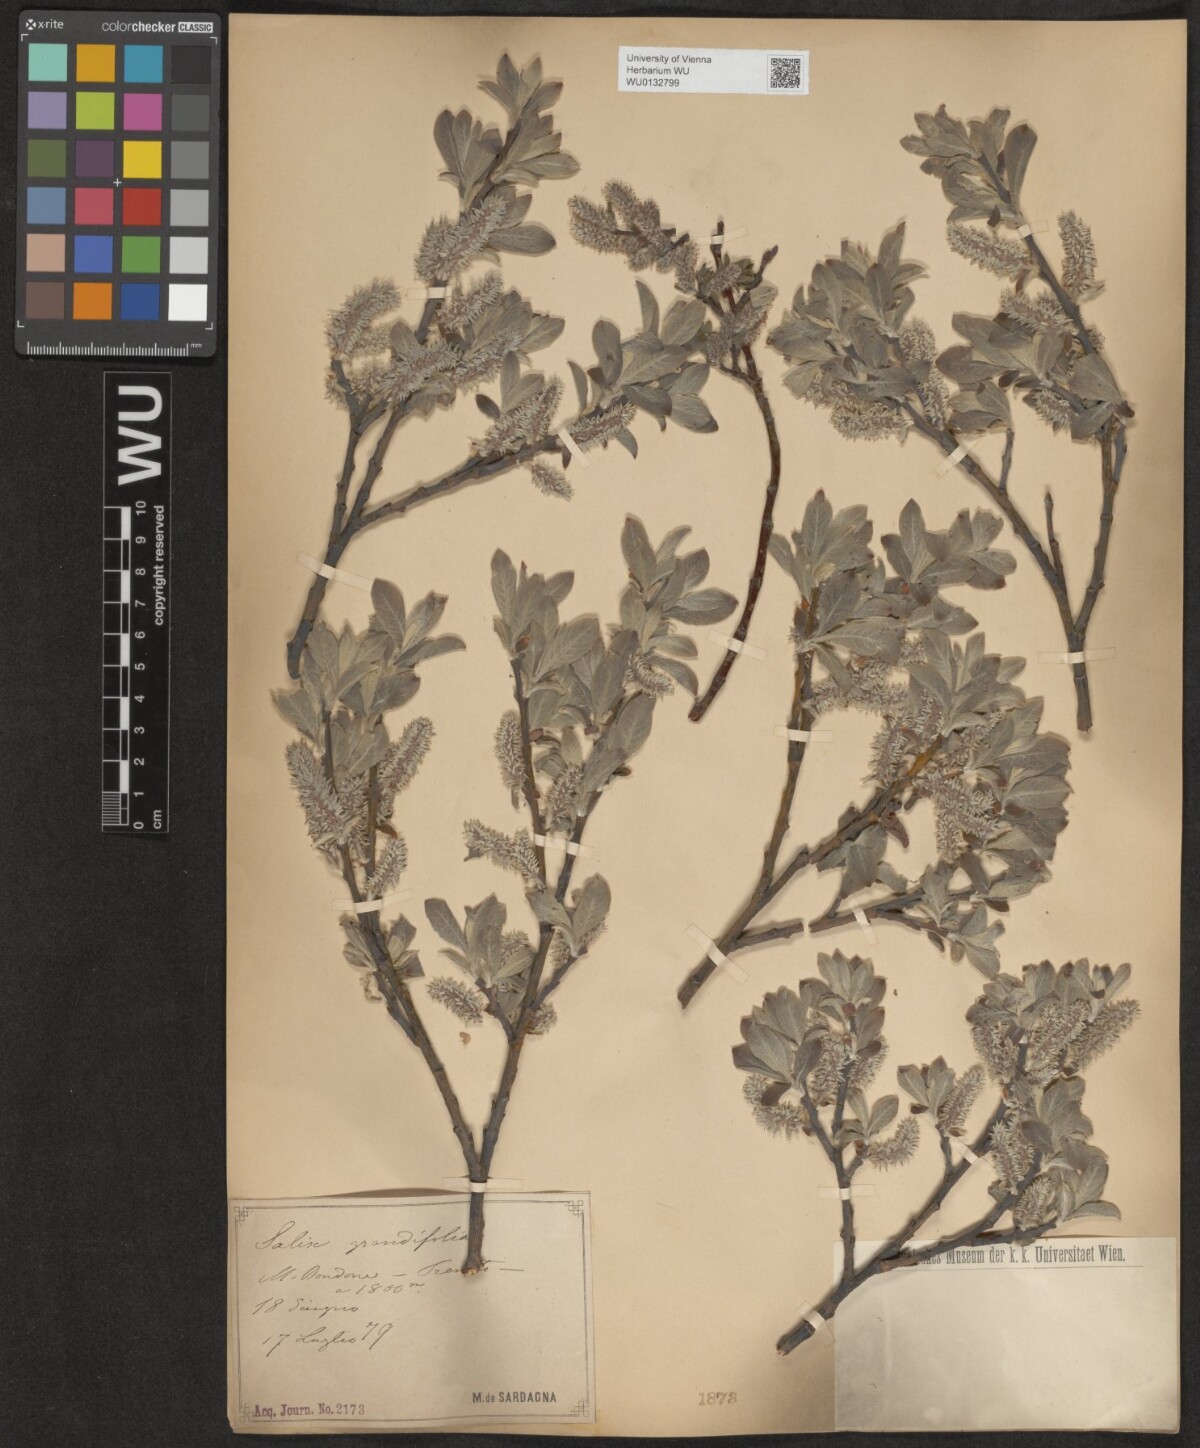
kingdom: Plantae
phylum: Tracheophyta
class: Magnoliopsida
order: Malpighiales
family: Salicaceae
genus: Salix
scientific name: Salix appendiculata
